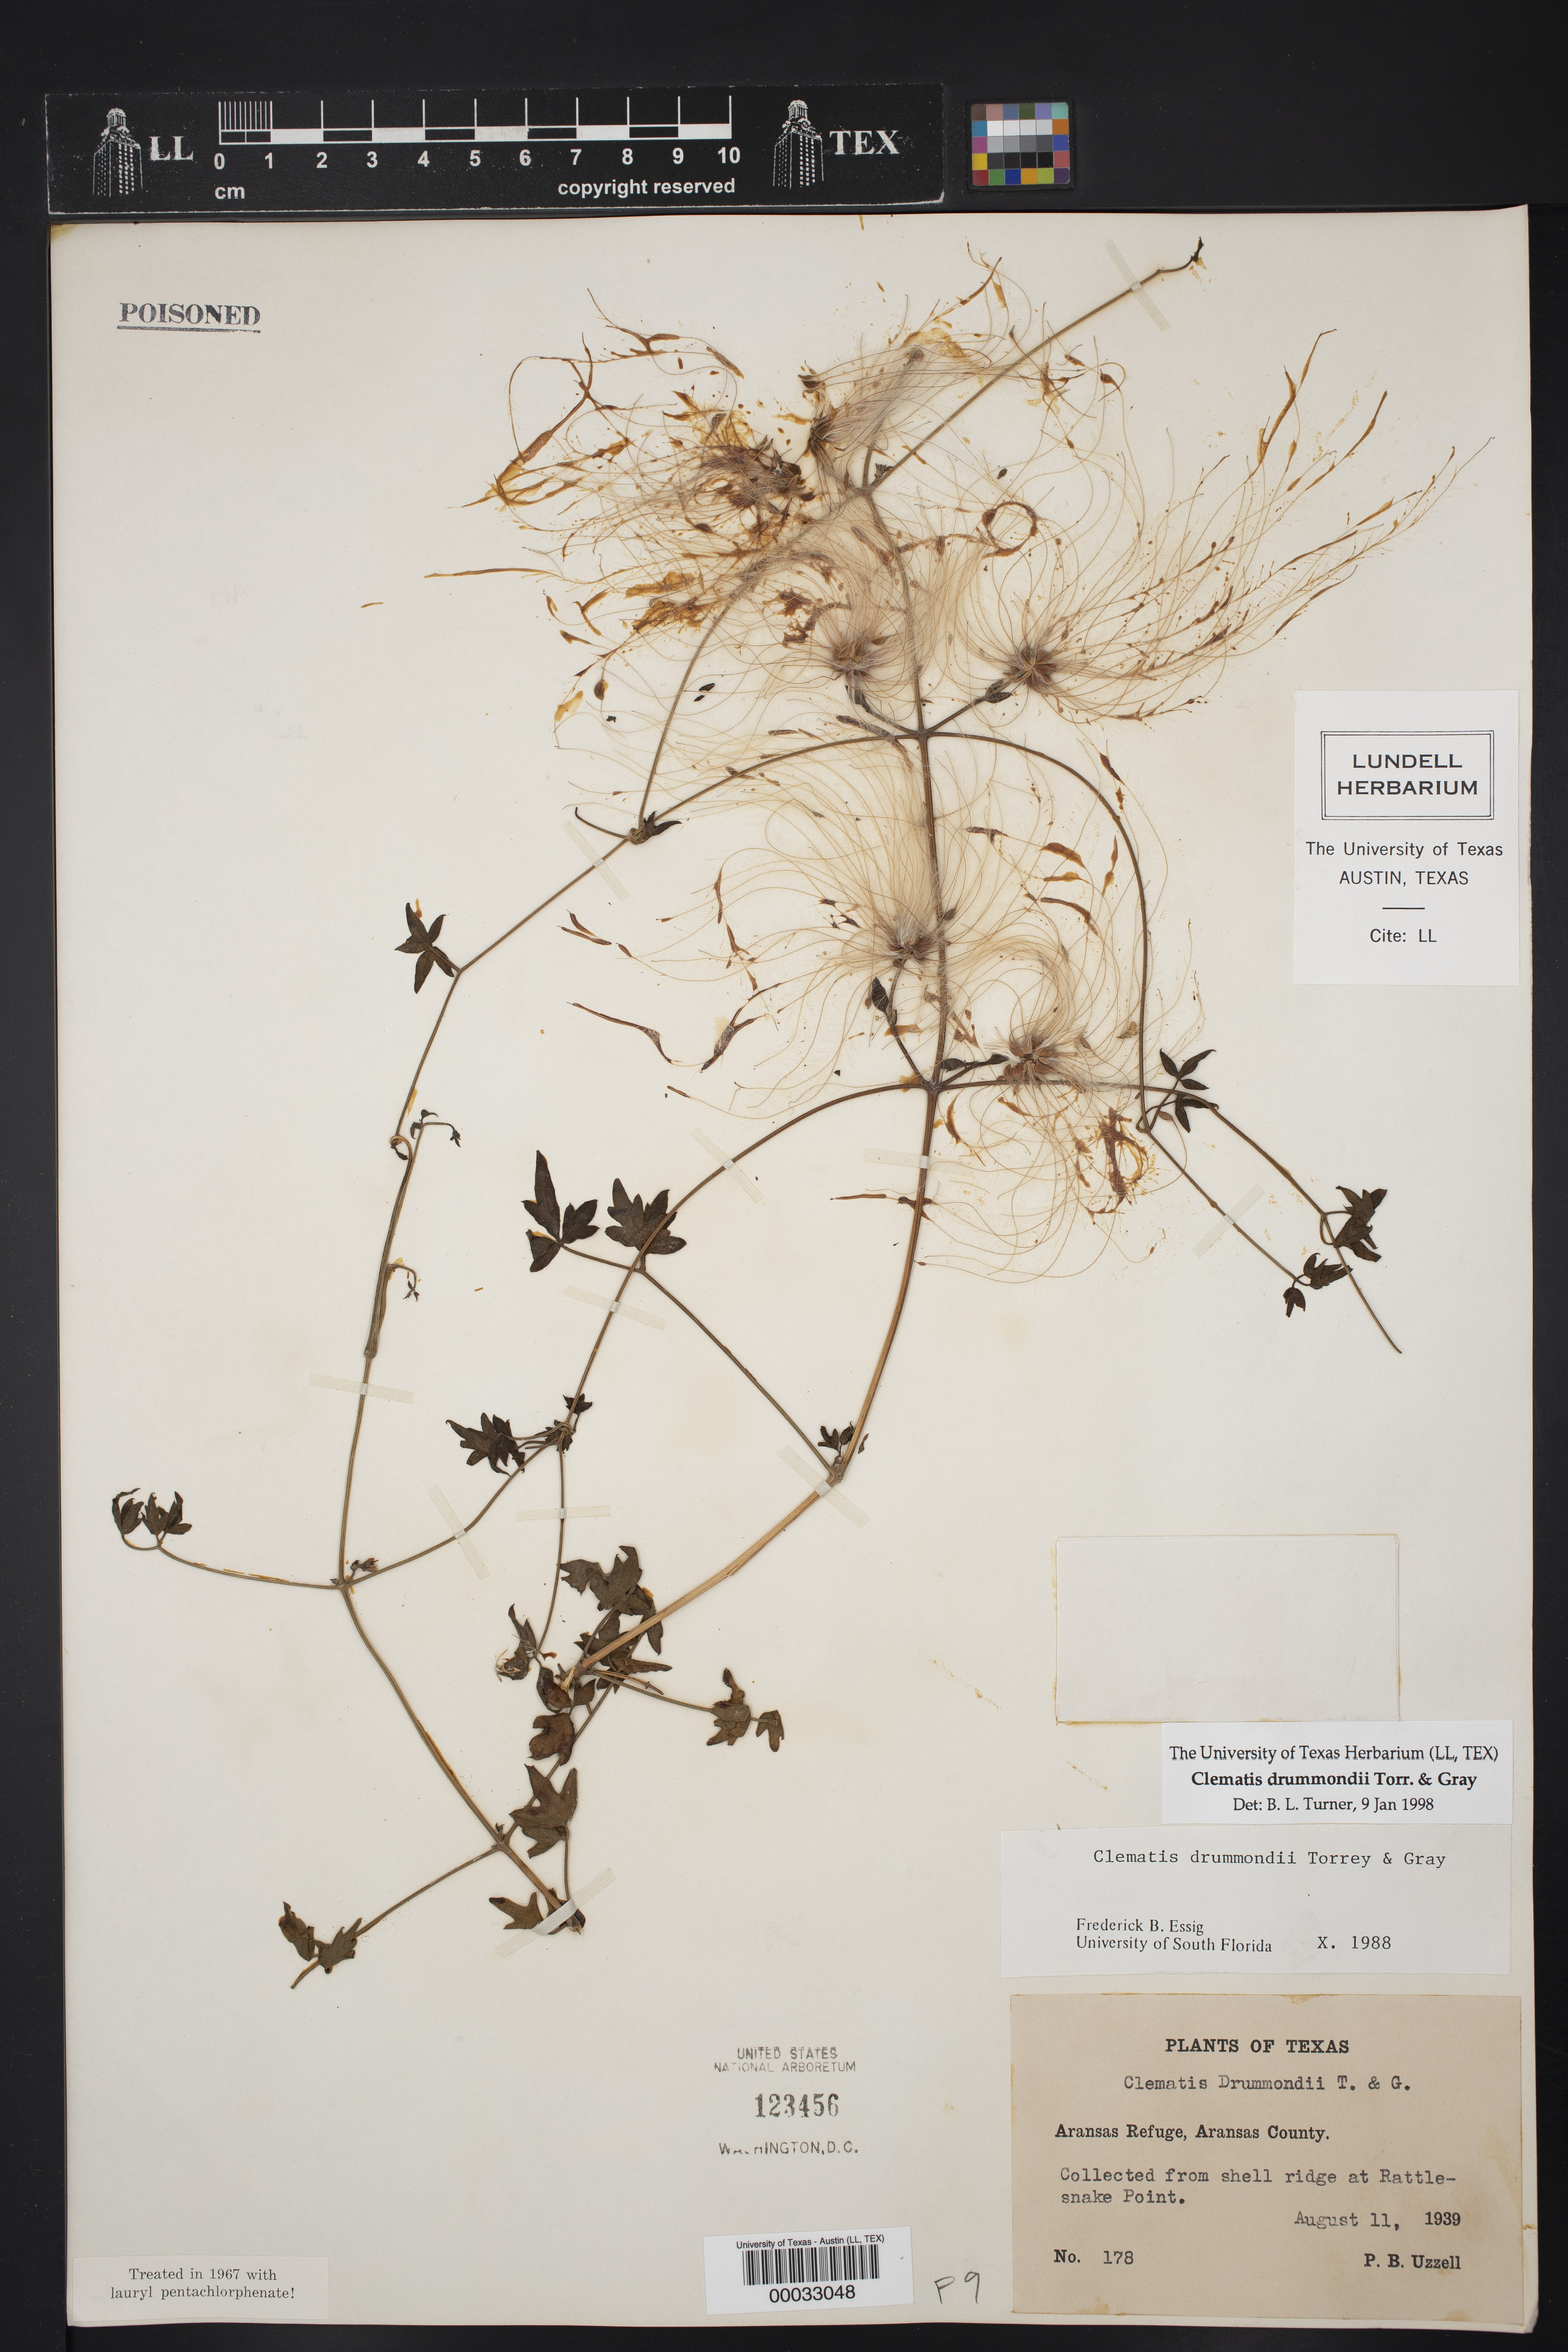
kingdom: Plantae
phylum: Tracheophyta
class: Magnoliopsida
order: Ranunculales
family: Ranunculaceae
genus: Clematis
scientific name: Clematis drummondii
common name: Texas virgin's bower
